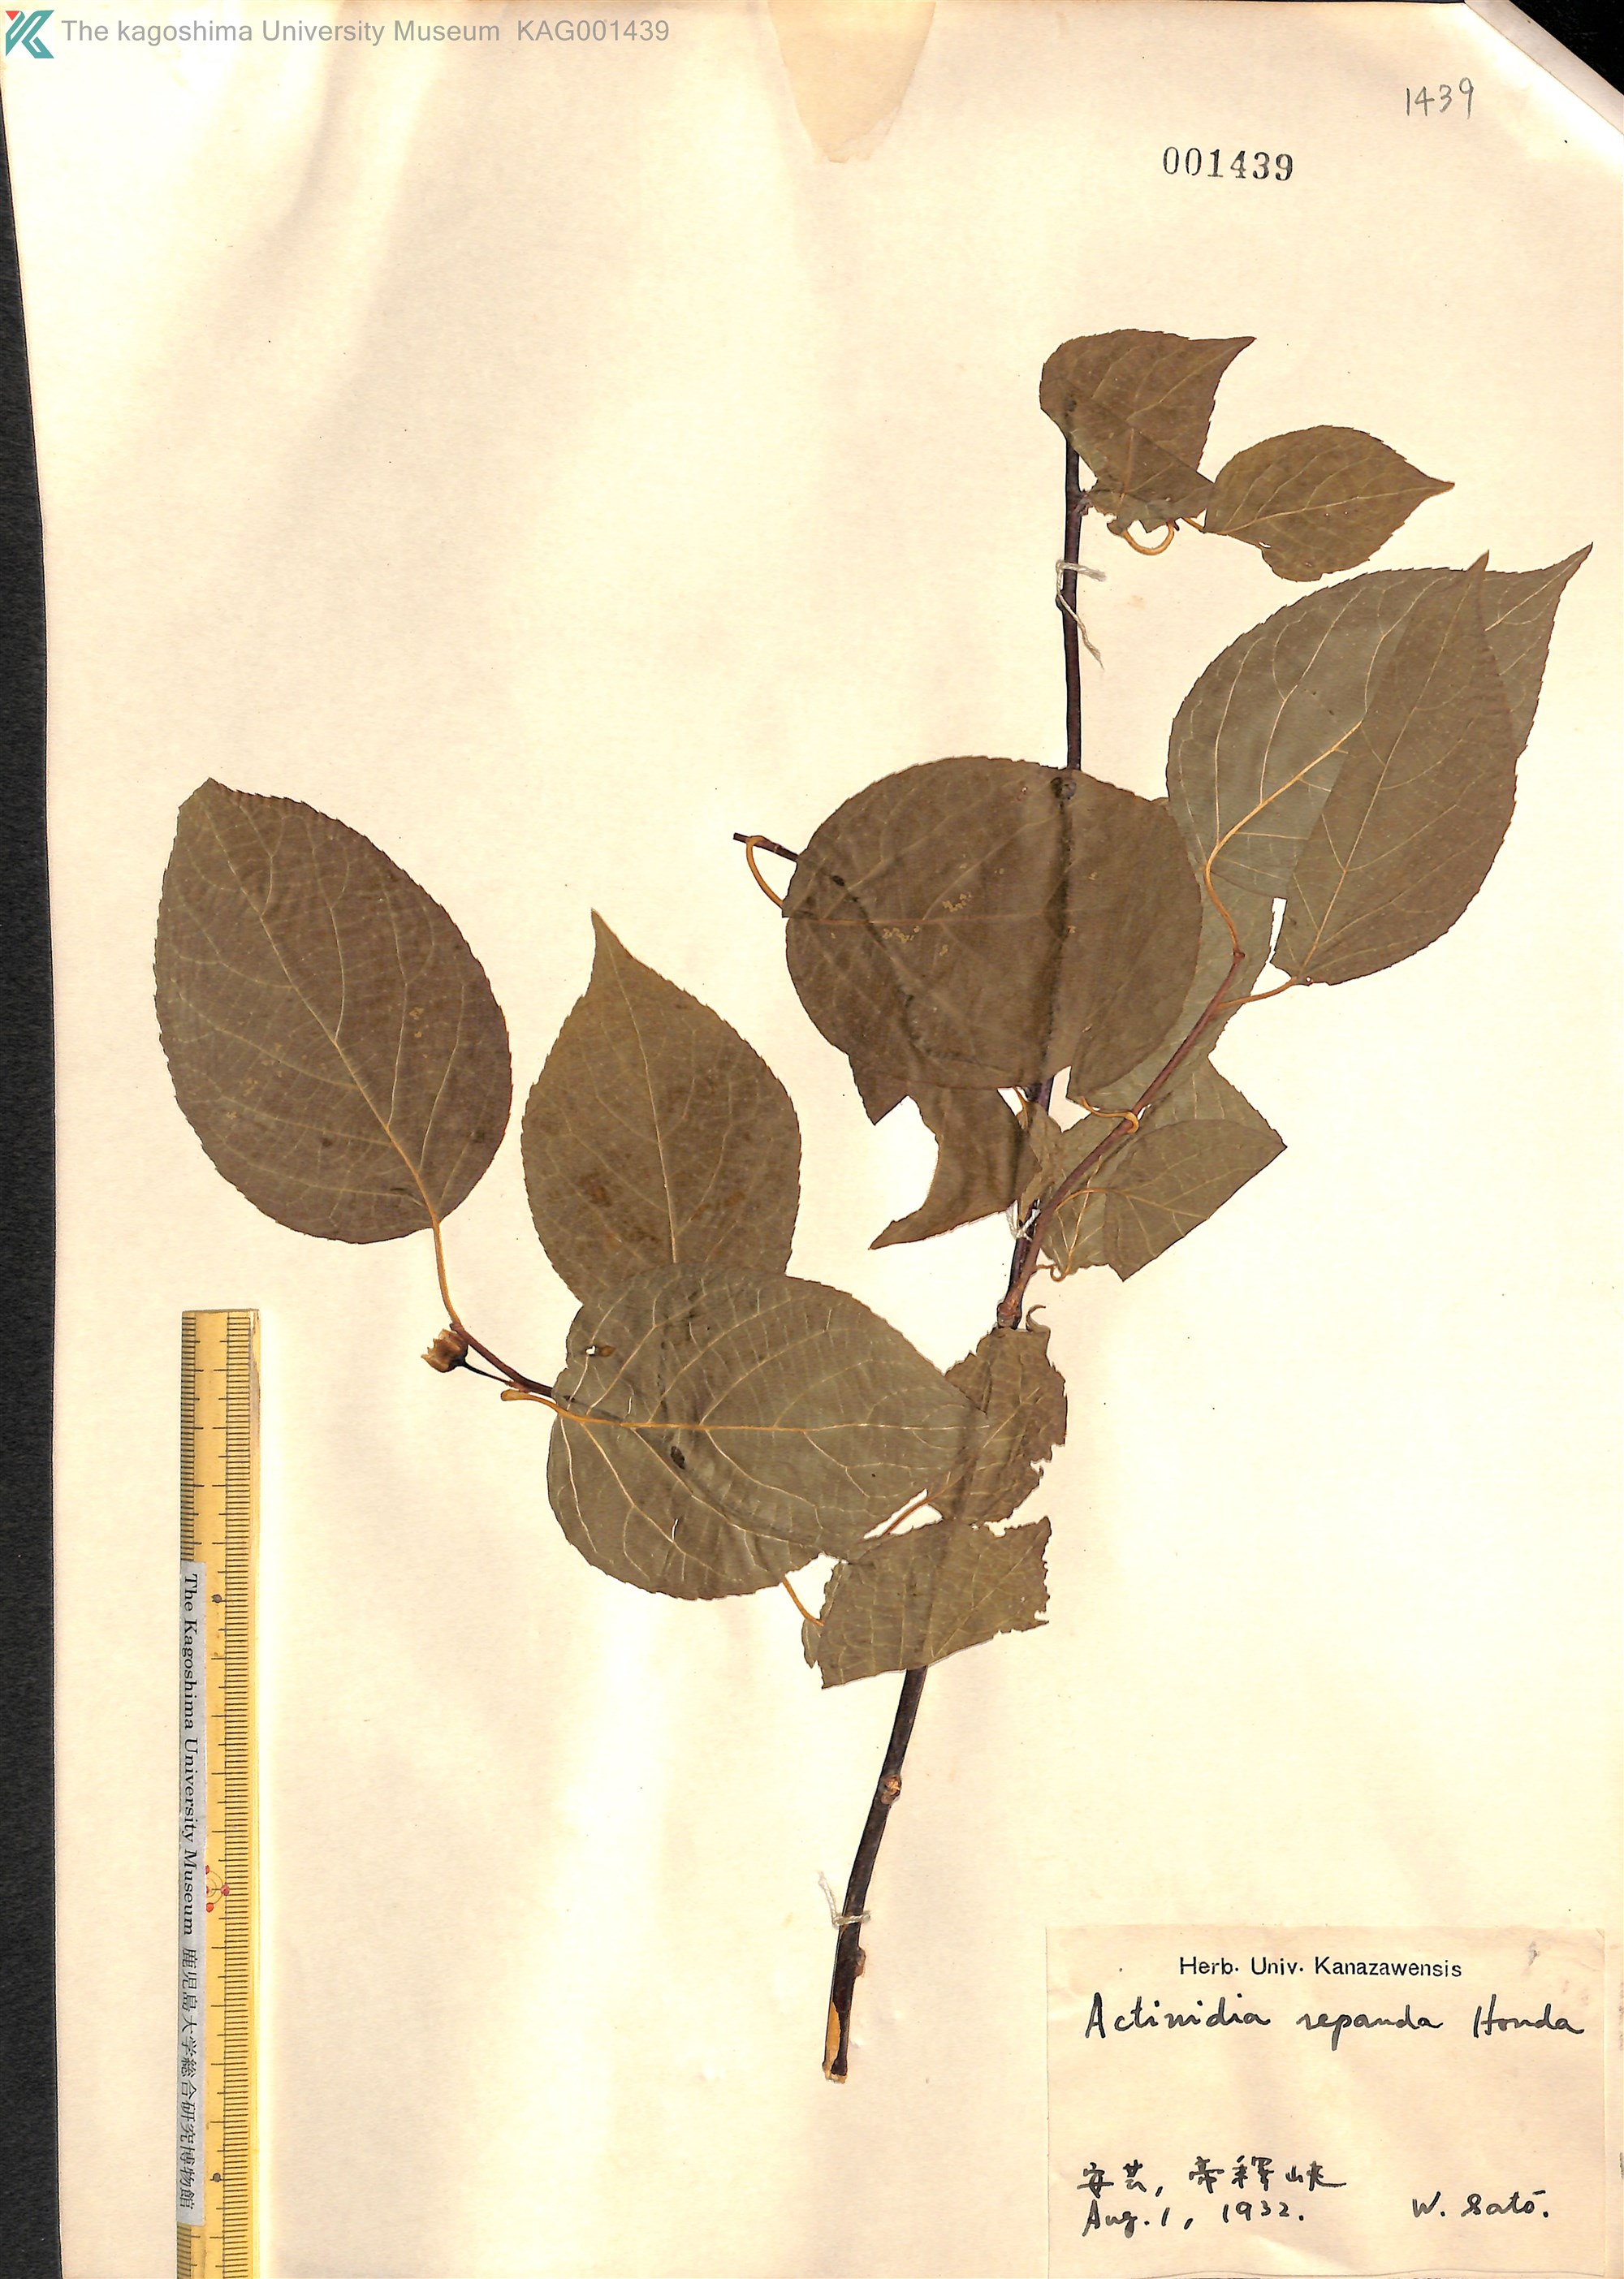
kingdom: Plantae
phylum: Tracheophyta
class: Magnoliopsida
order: Ericales
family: Actinidiaceae
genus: Actinidia
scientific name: Actinidia polygama
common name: Silver vine
